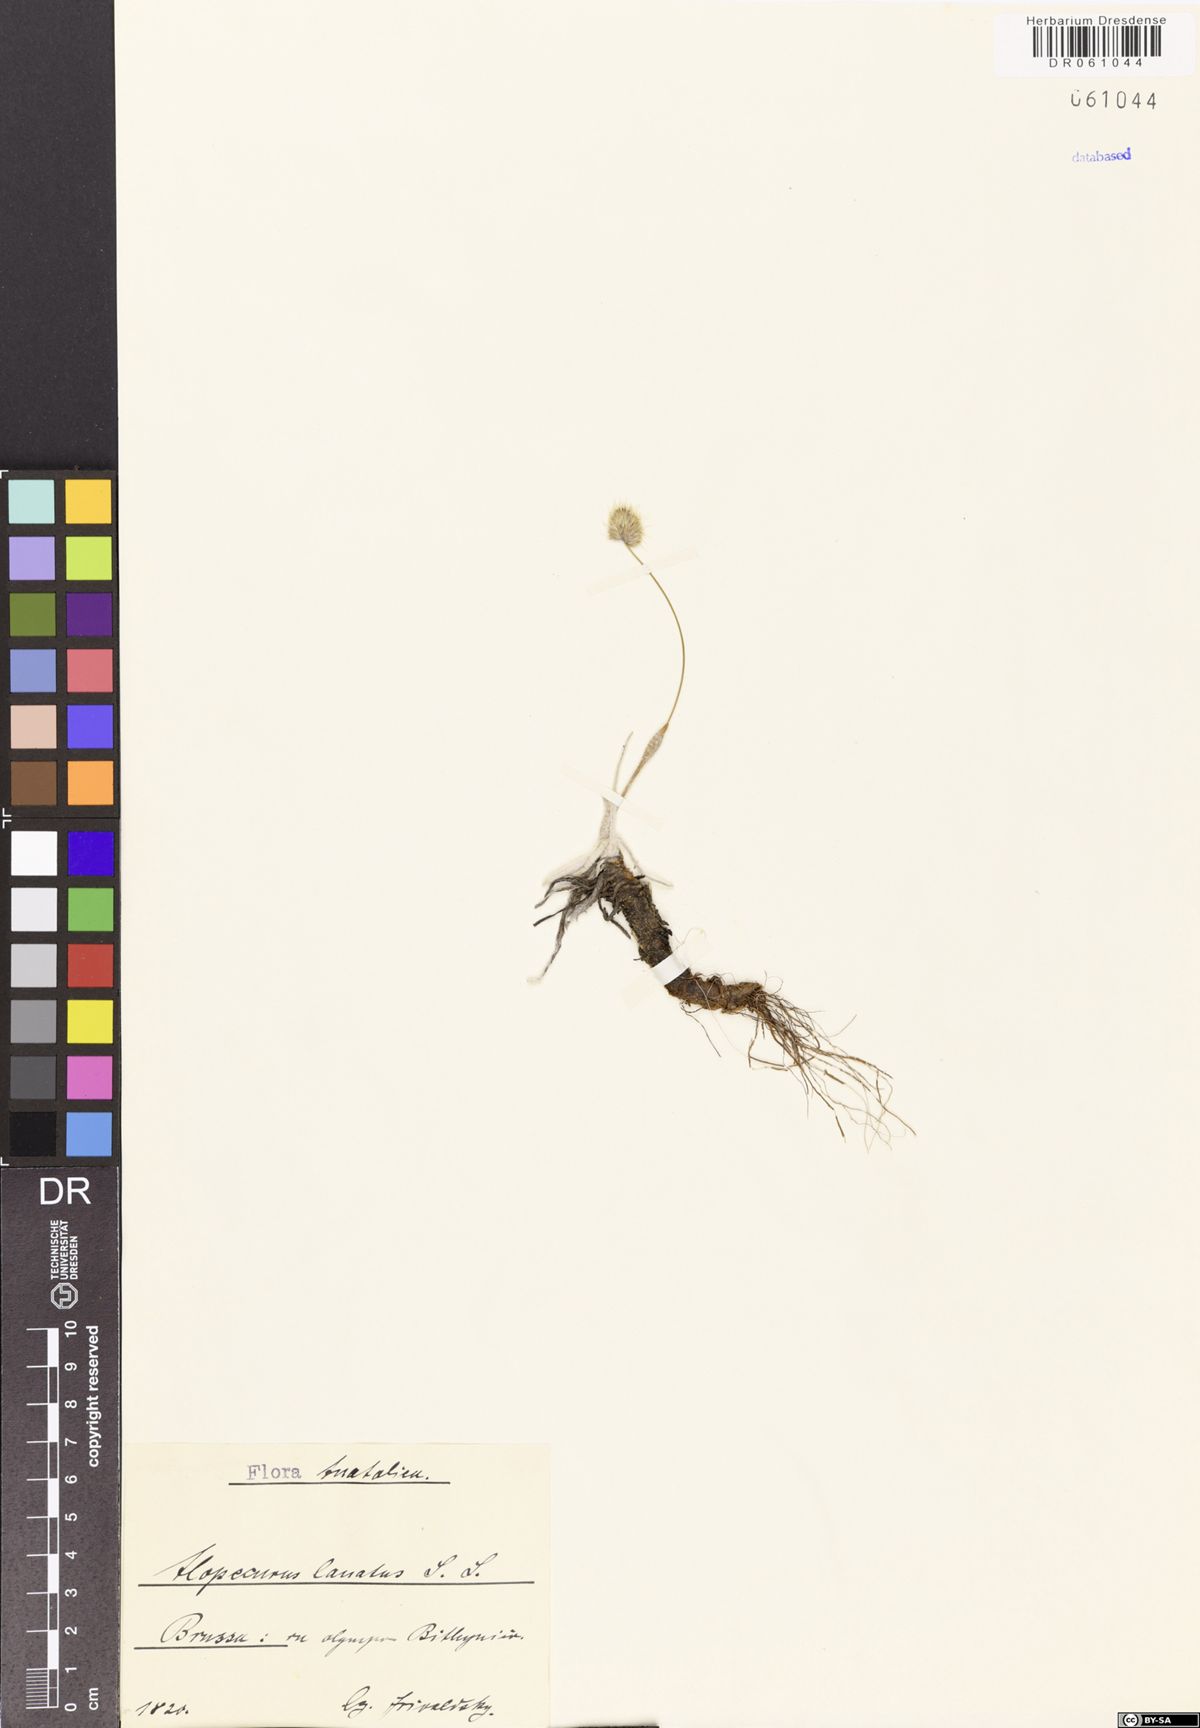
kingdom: Plantae
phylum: Tracheophyta
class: Liliopsida
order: Poales
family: Poaceae
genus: Alopecurus
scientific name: Alopecurus lanatus
